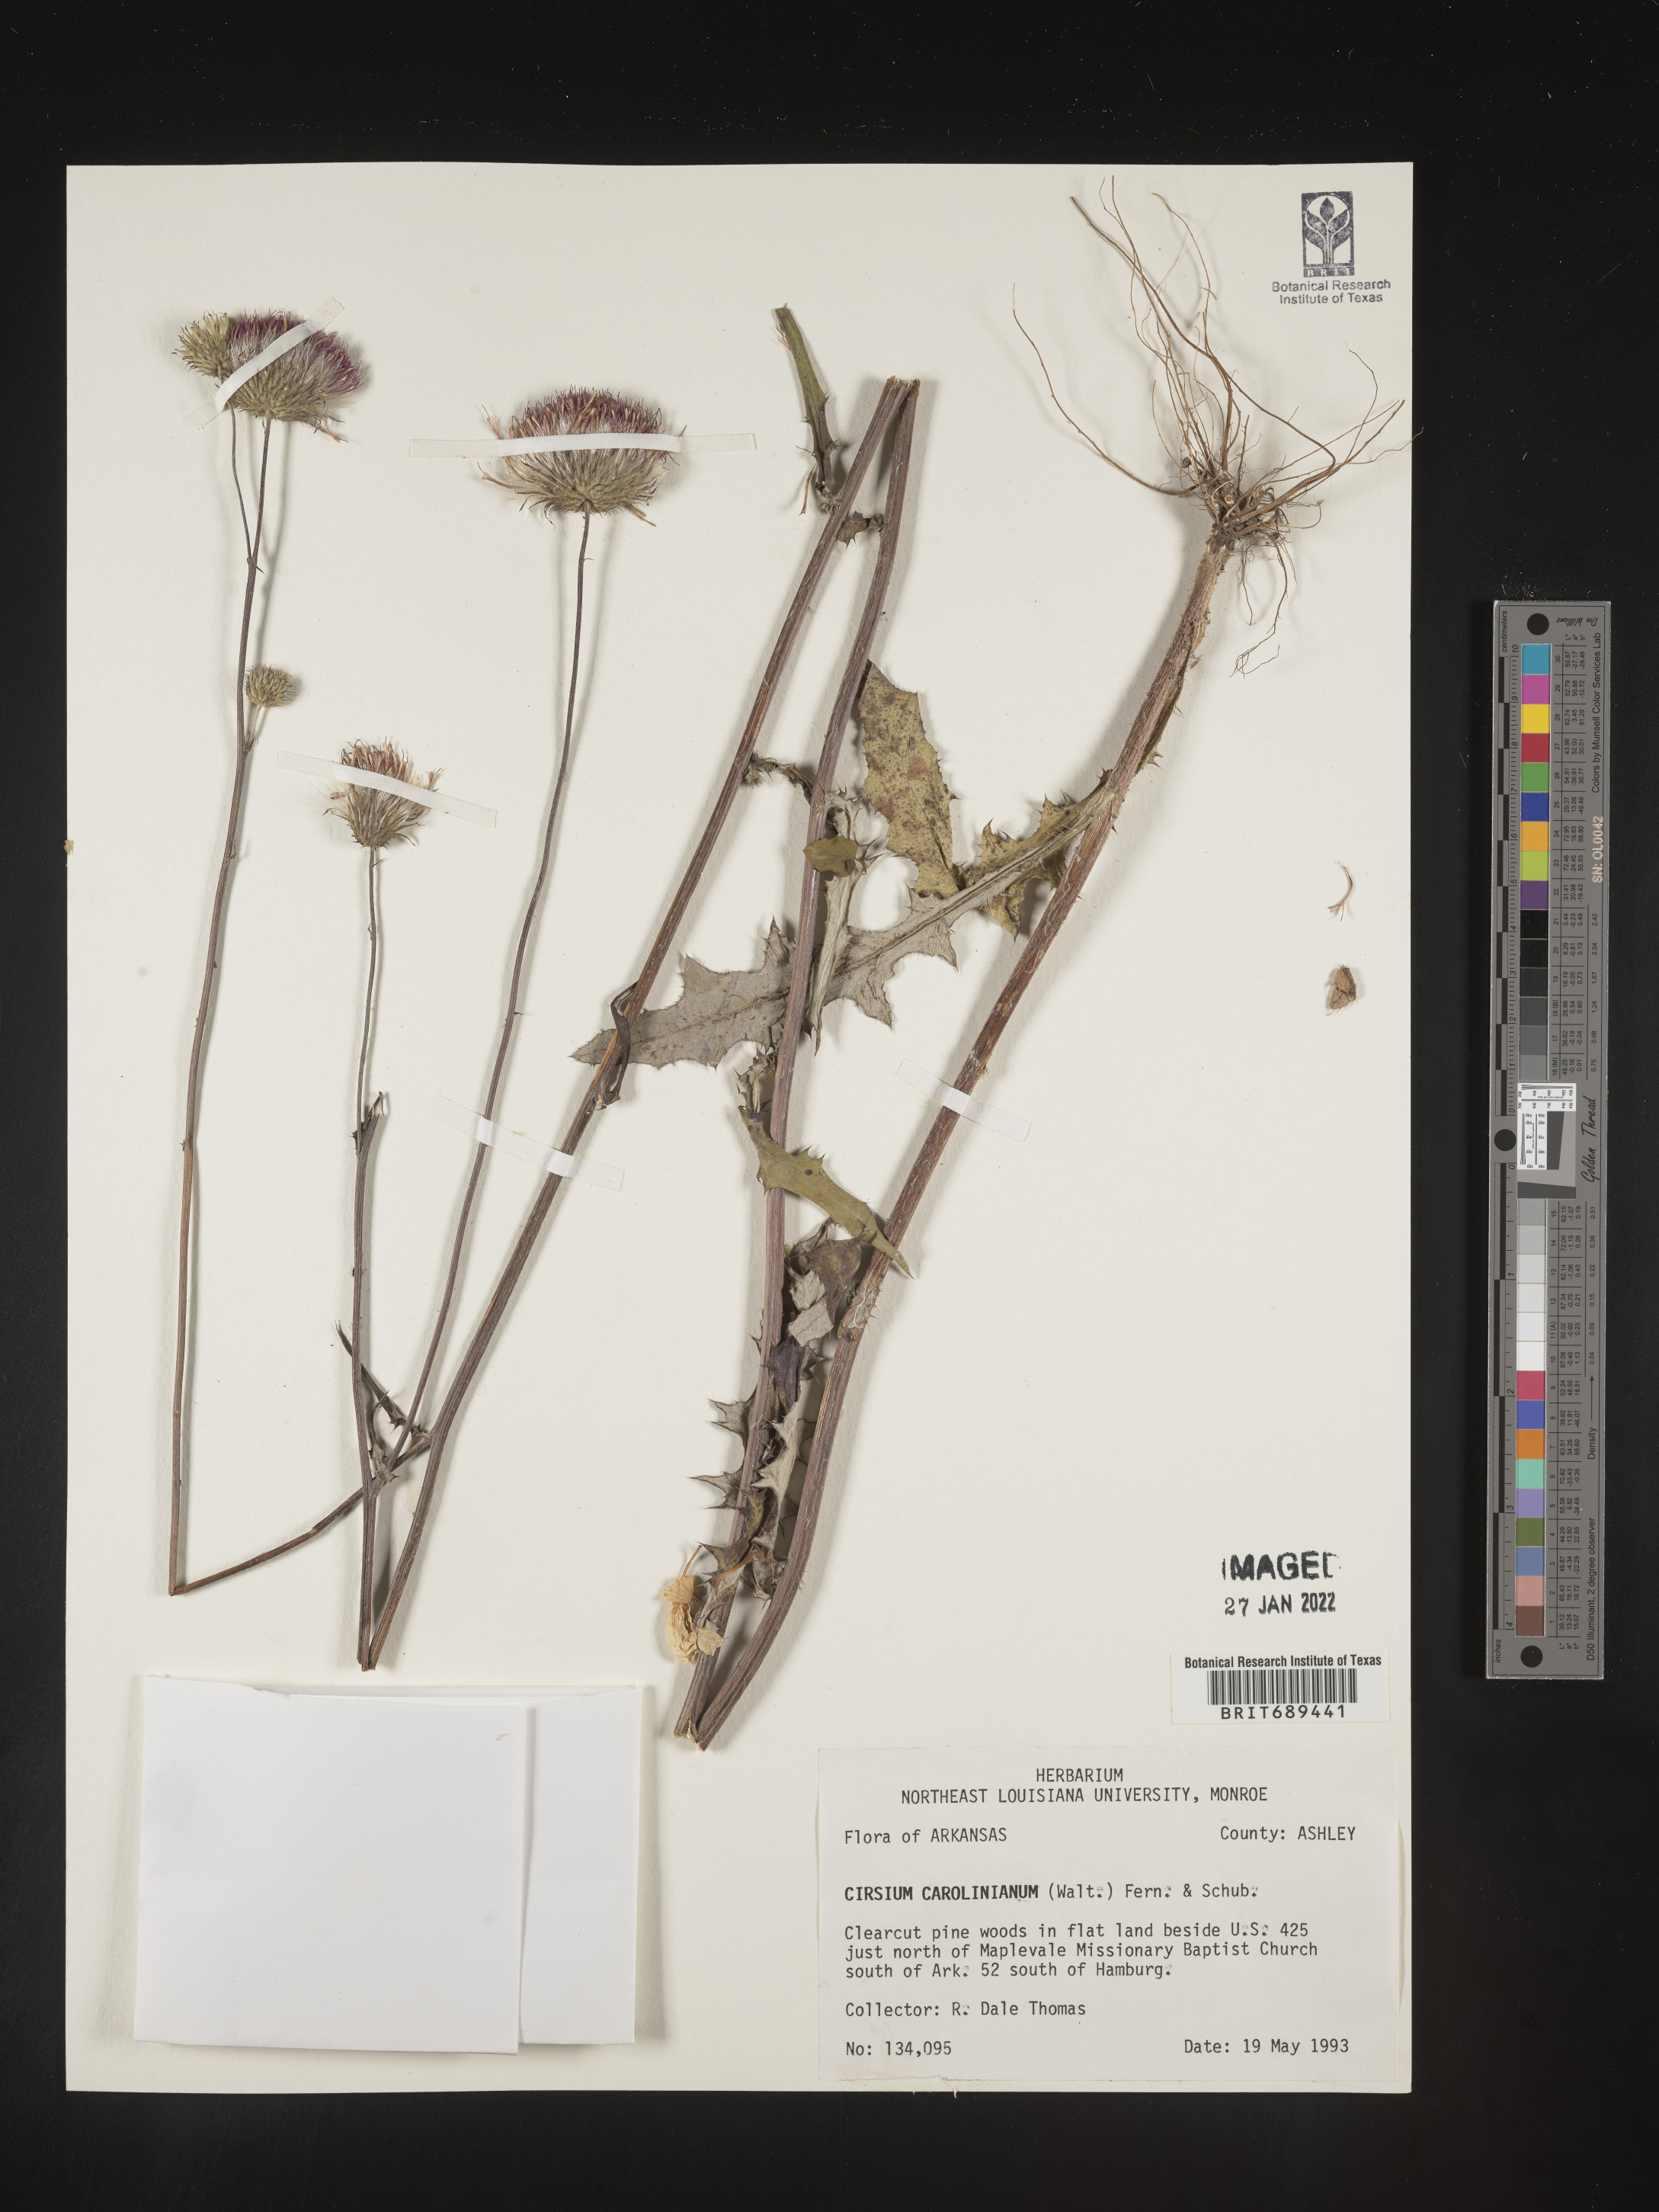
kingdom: Plantae
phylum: Tracheophyta
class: Magnoliopsida
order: Asterales
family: Asteraceae
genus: Cirsium
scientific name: Cirsium carolinianum
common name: Carolina thistle
